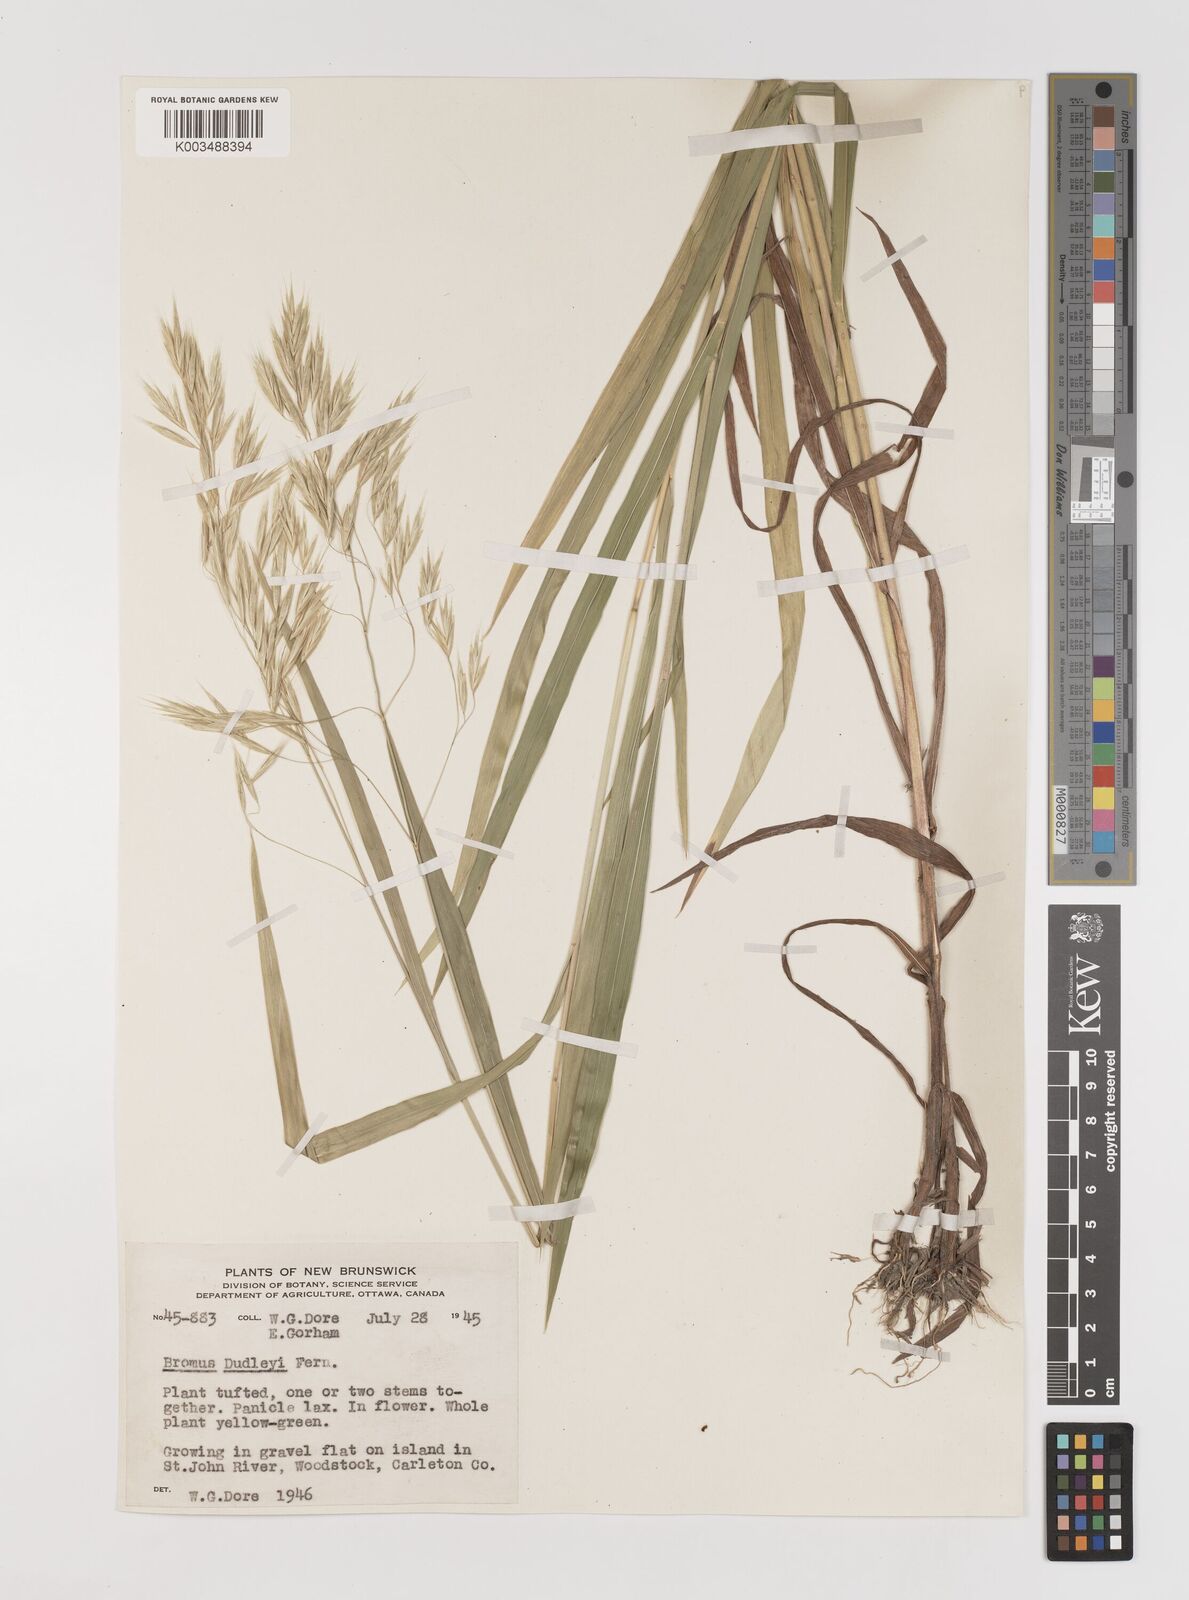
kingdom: Plantae
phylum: Tracheophyta
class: Liliopsida
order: Poales
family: Poaceae
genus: Bromus
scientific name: Bromus ciliatus
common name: Fringe brome
